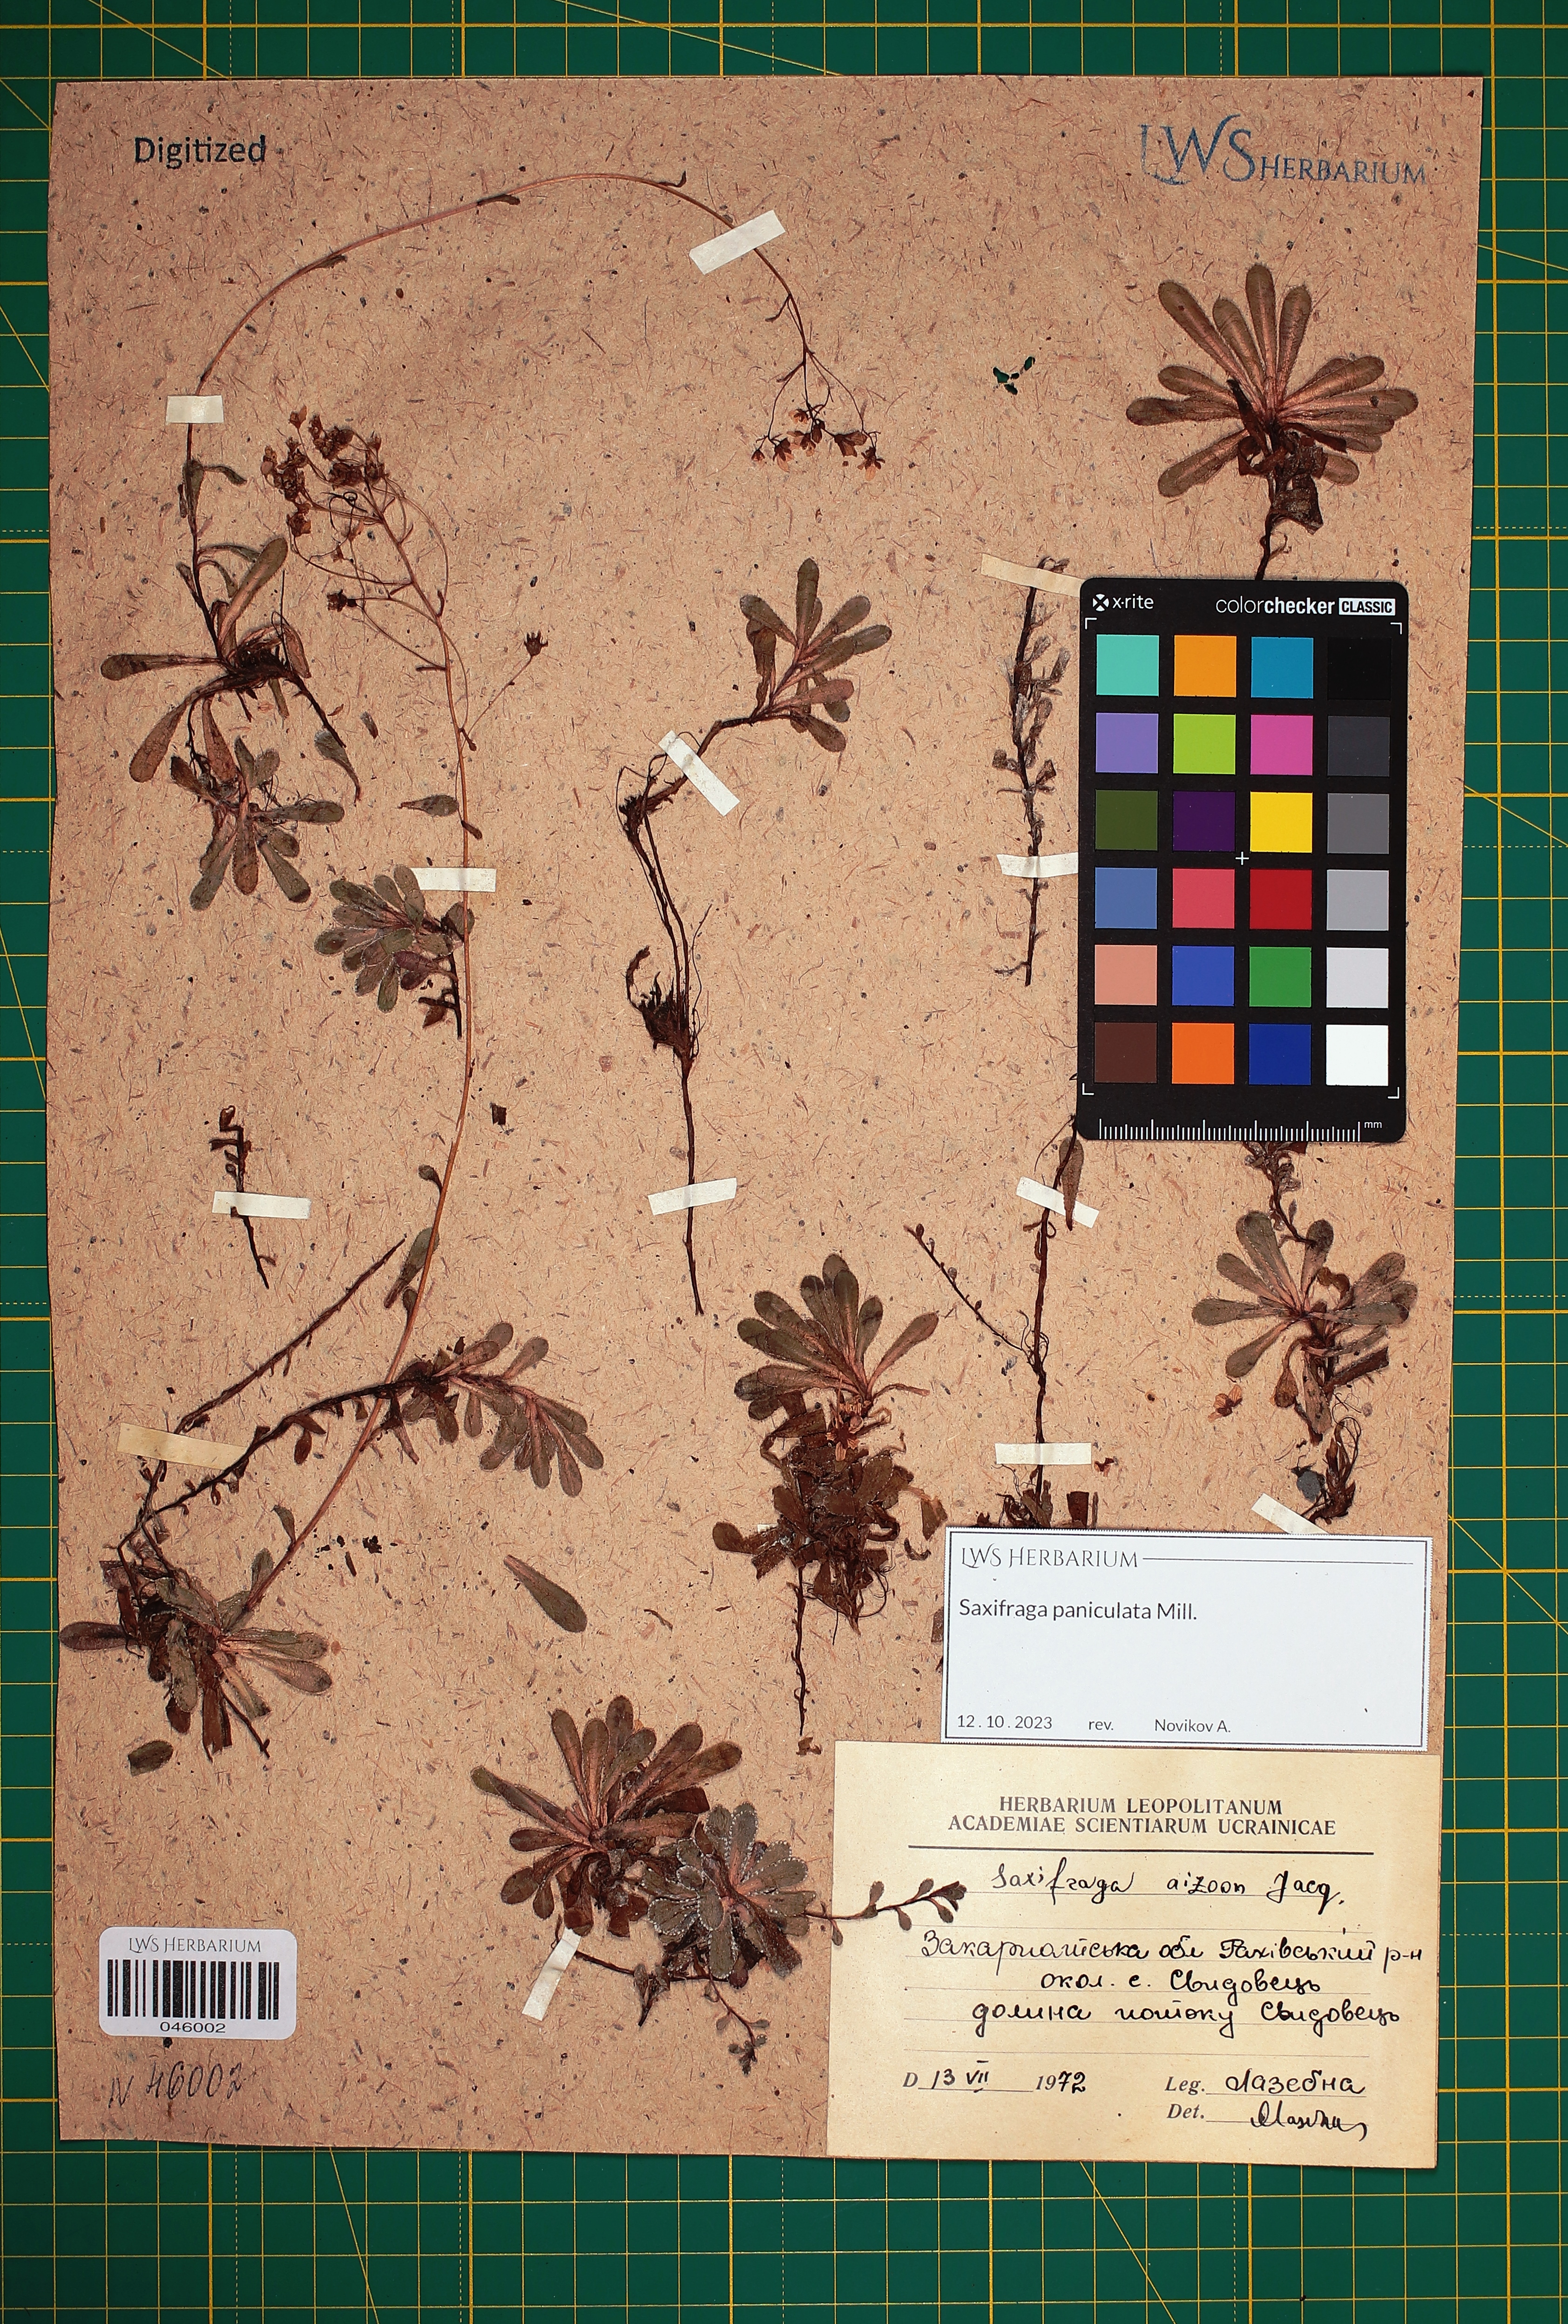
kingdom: Plantae
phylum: Tracheophyta
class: Magnoliopsida
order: Saxifragales
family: Saxifragaceae
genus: Saxifraga
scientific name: Saxifraga paniculata
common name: Livelong saxifrage
